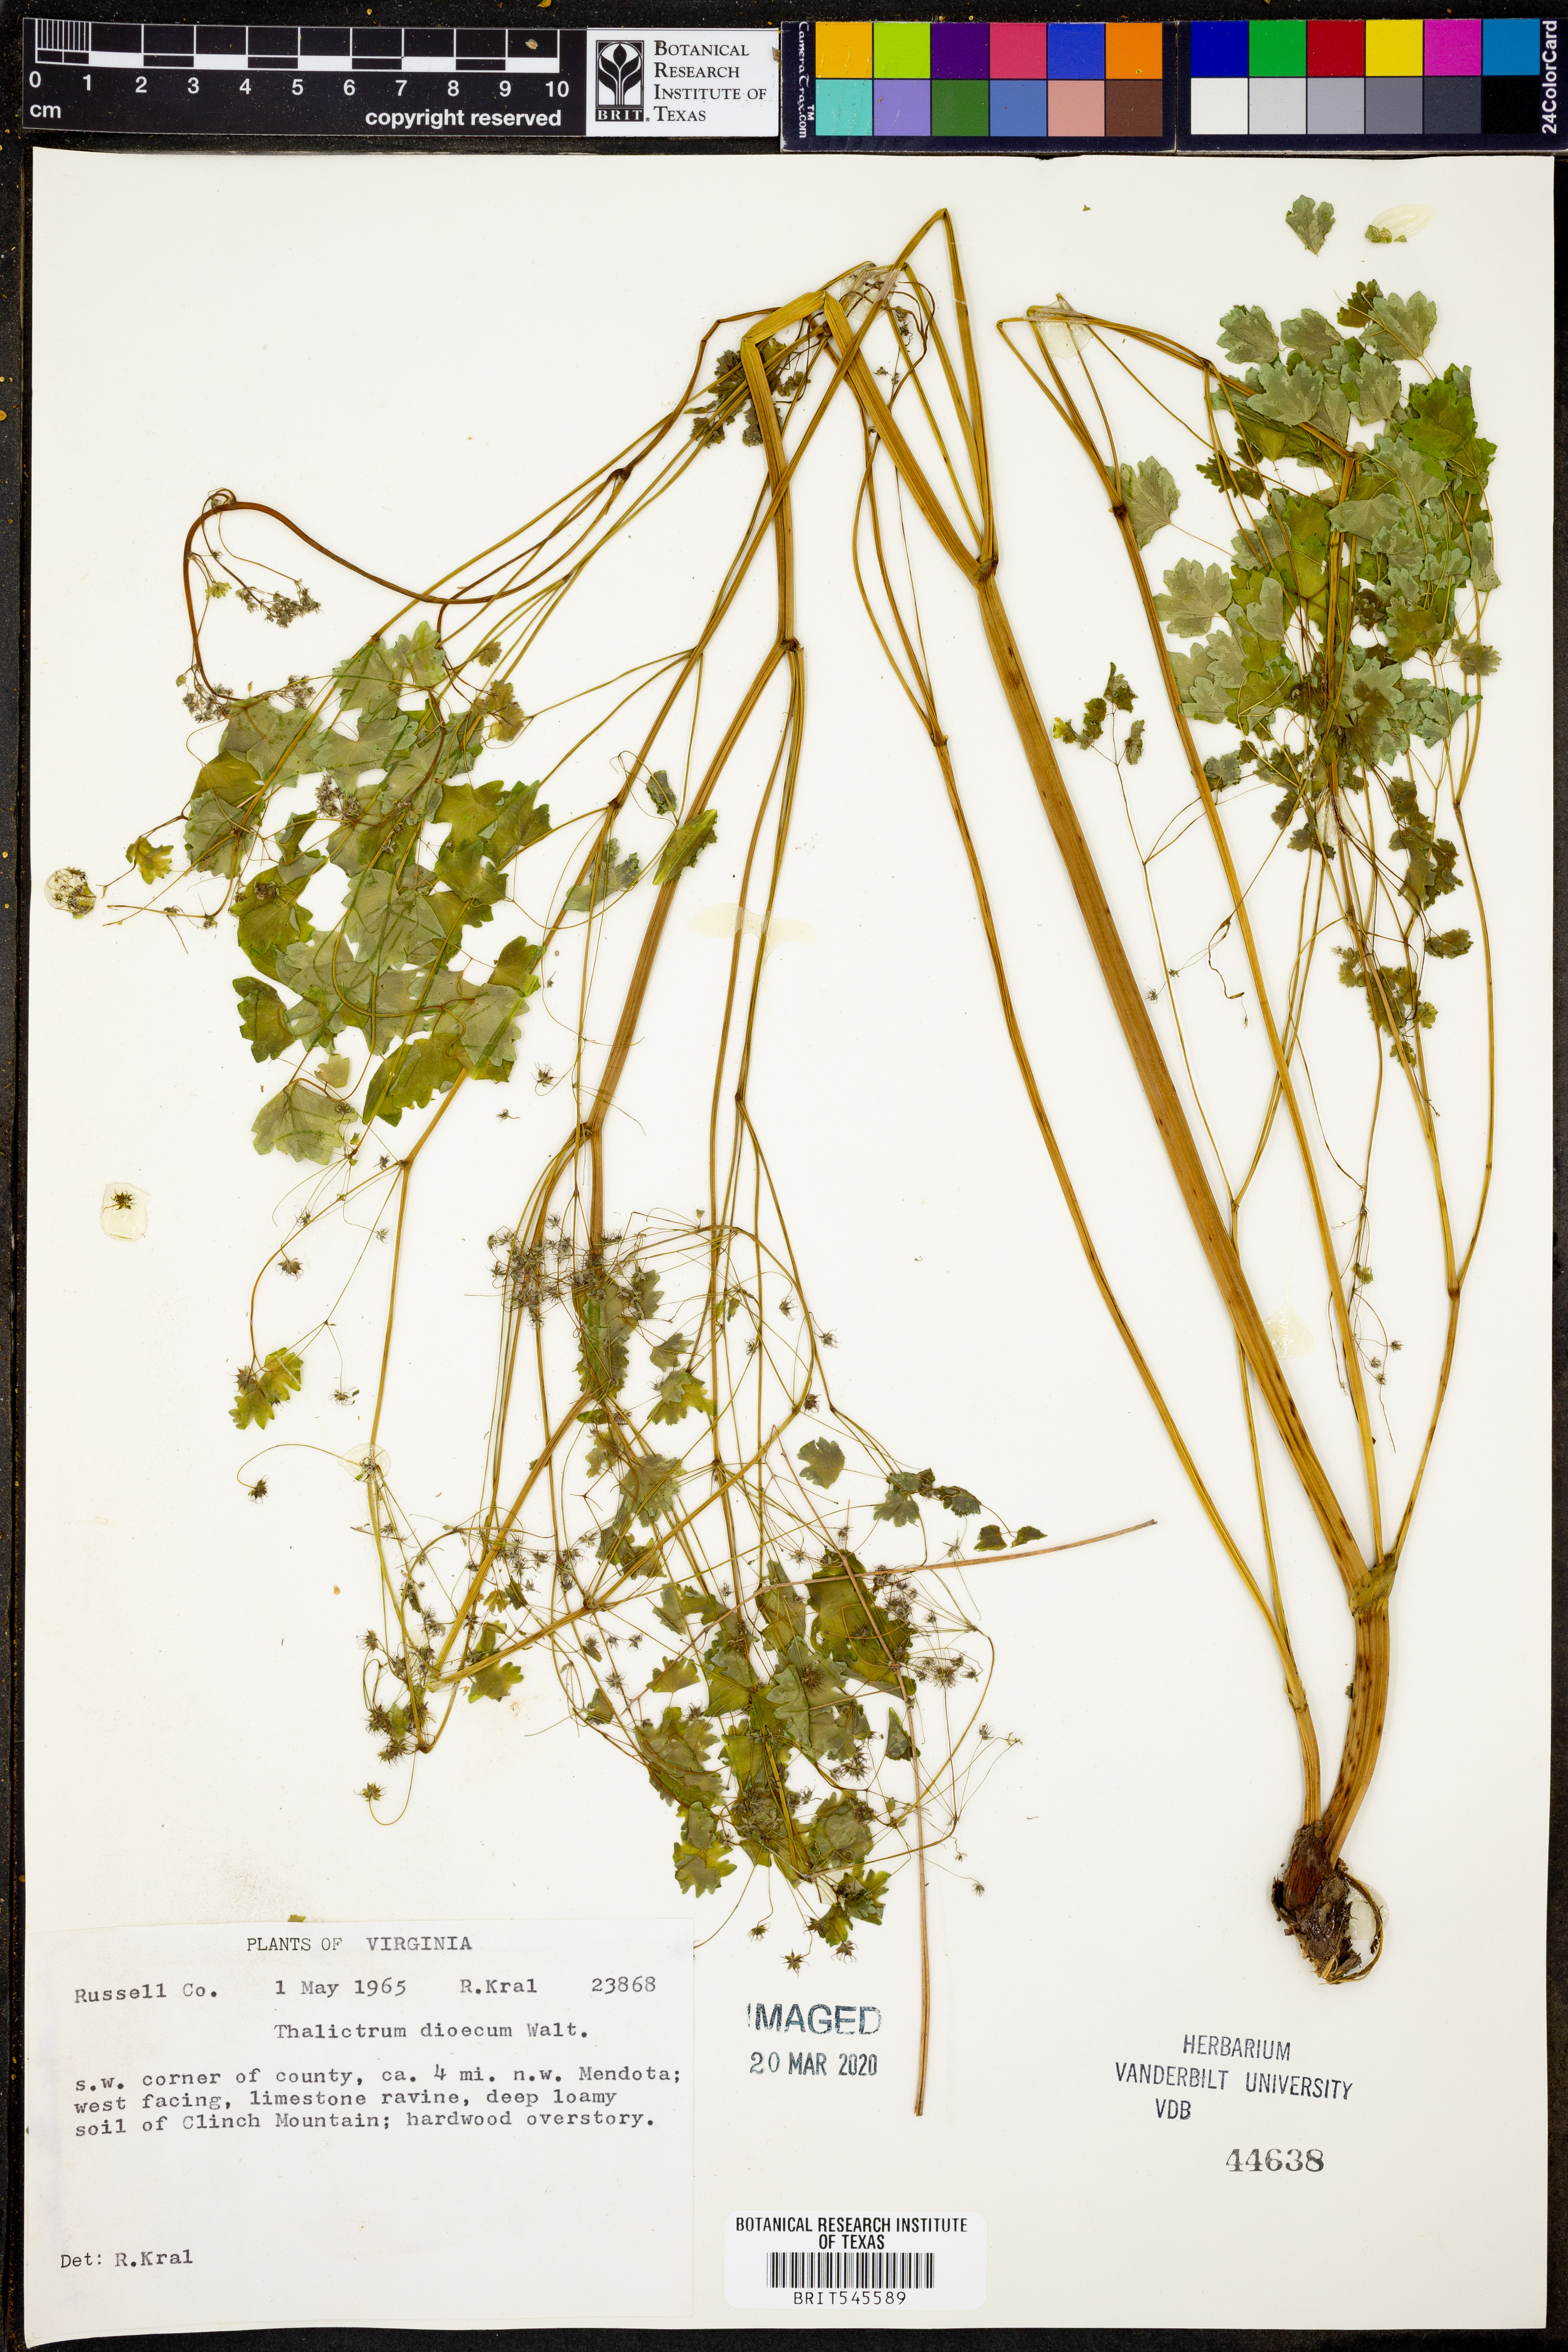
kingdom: Plantae
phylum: Tracheophyta
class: Magnoliopsida
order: Ranunculales
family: Ranunculaceae
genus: Thalictrum
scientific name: Thalictrum dioicum
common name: Early meadow-rue
